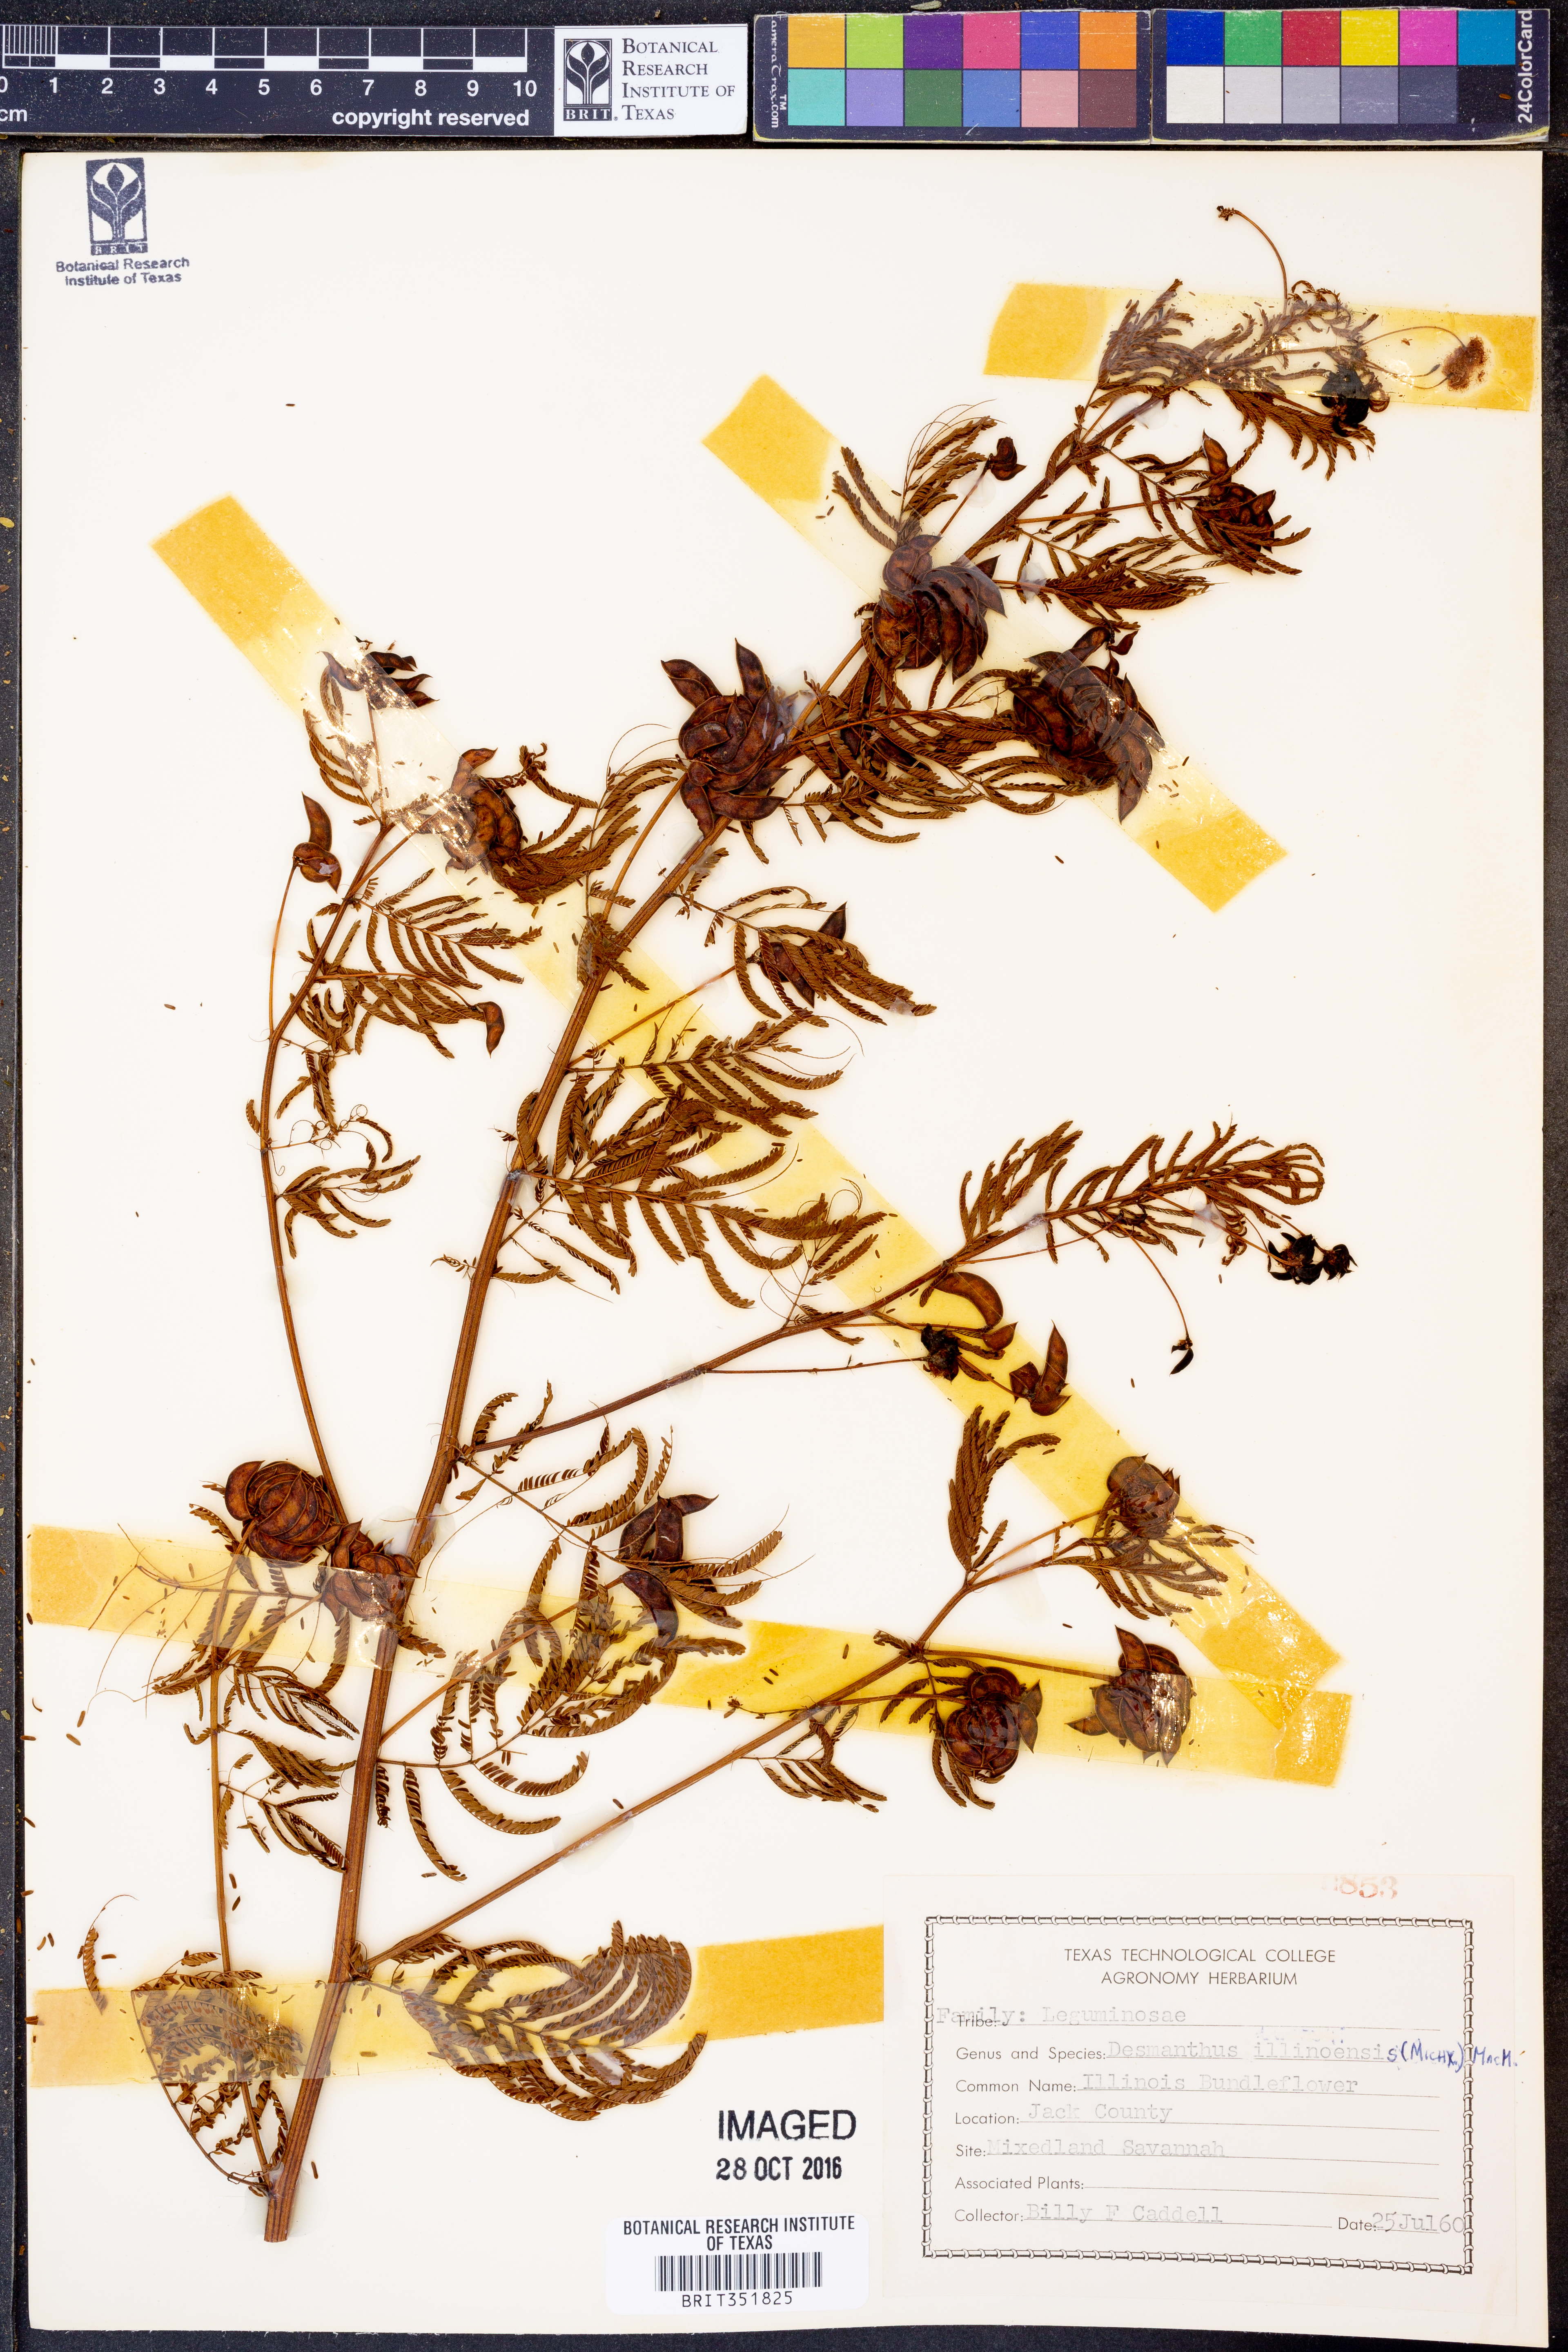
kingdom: Plantae
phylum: Tracheophyta
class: Magnoliopsida
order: Fabales
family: Fabaceae
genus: Desmanthus
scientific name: Desmanthus illinoensis
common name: Illinois bundle-flower
